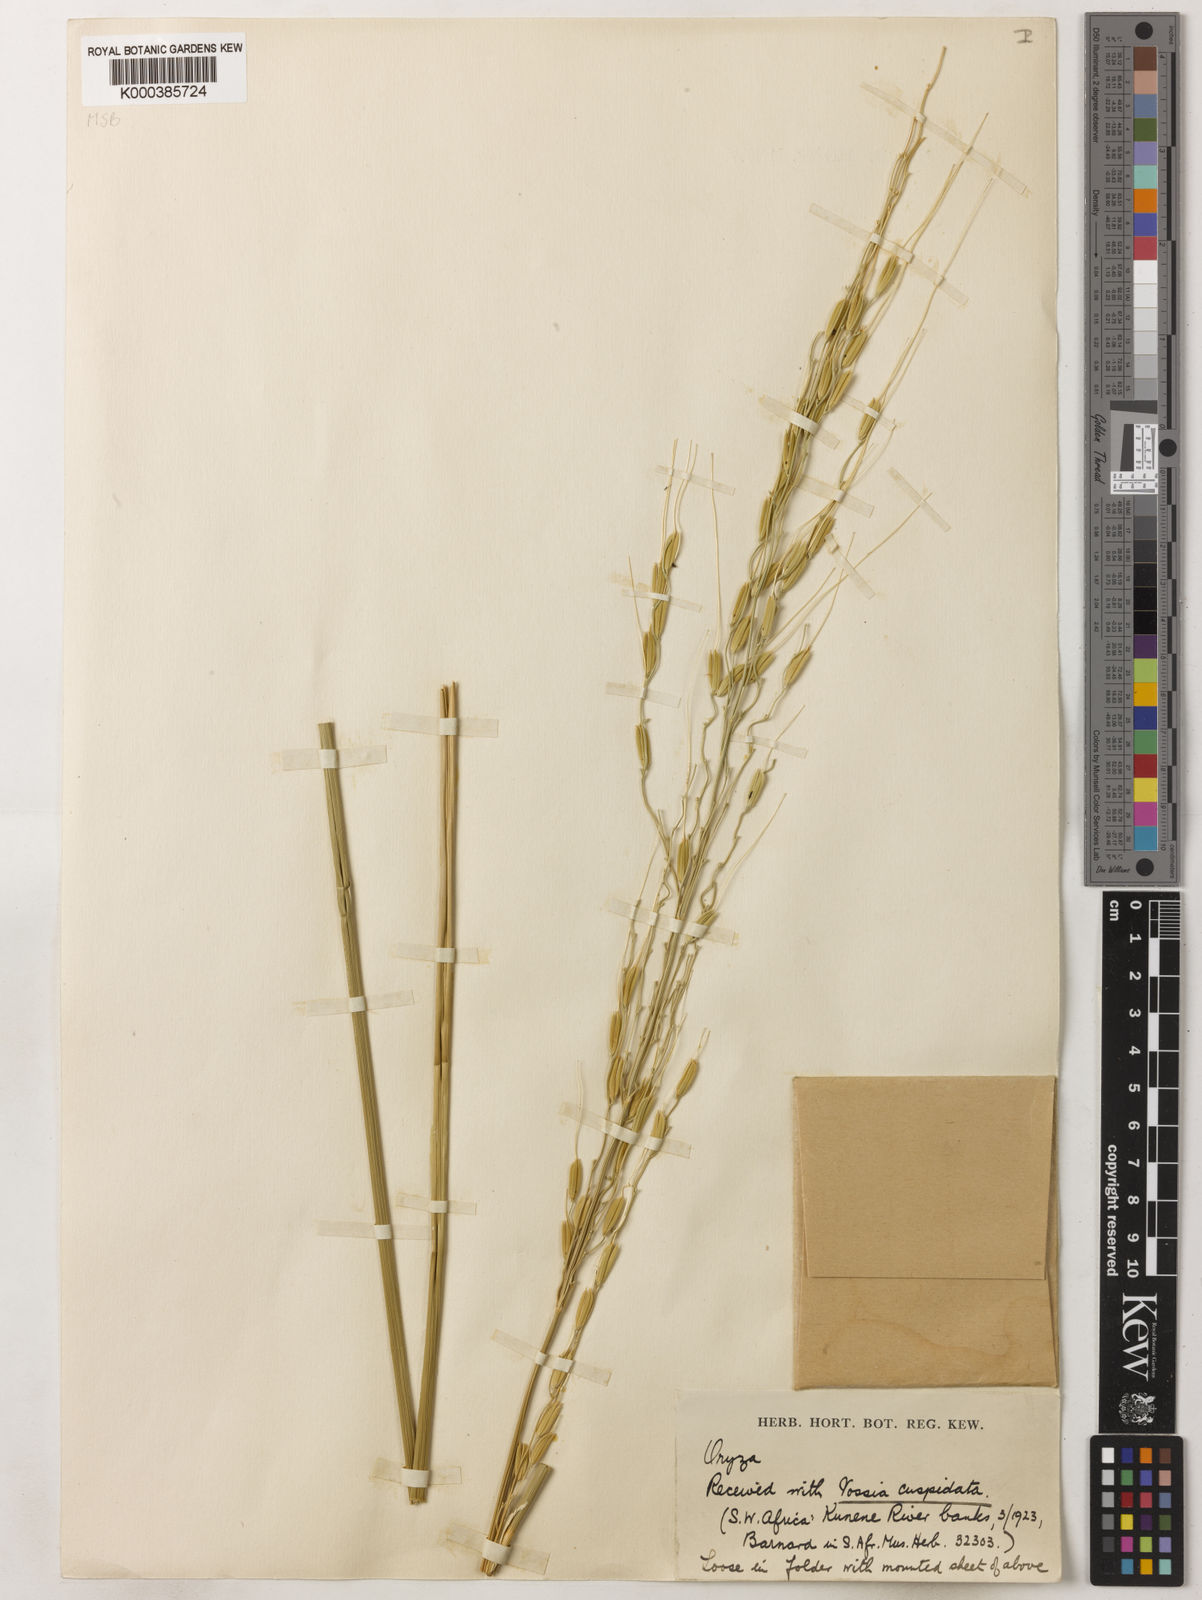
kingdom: Plantae
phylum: Tracheophyta
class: Liliopsida
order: Poales
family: Poaceae
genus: Oryza
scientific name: Oryza longistaminata
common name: Red rice
